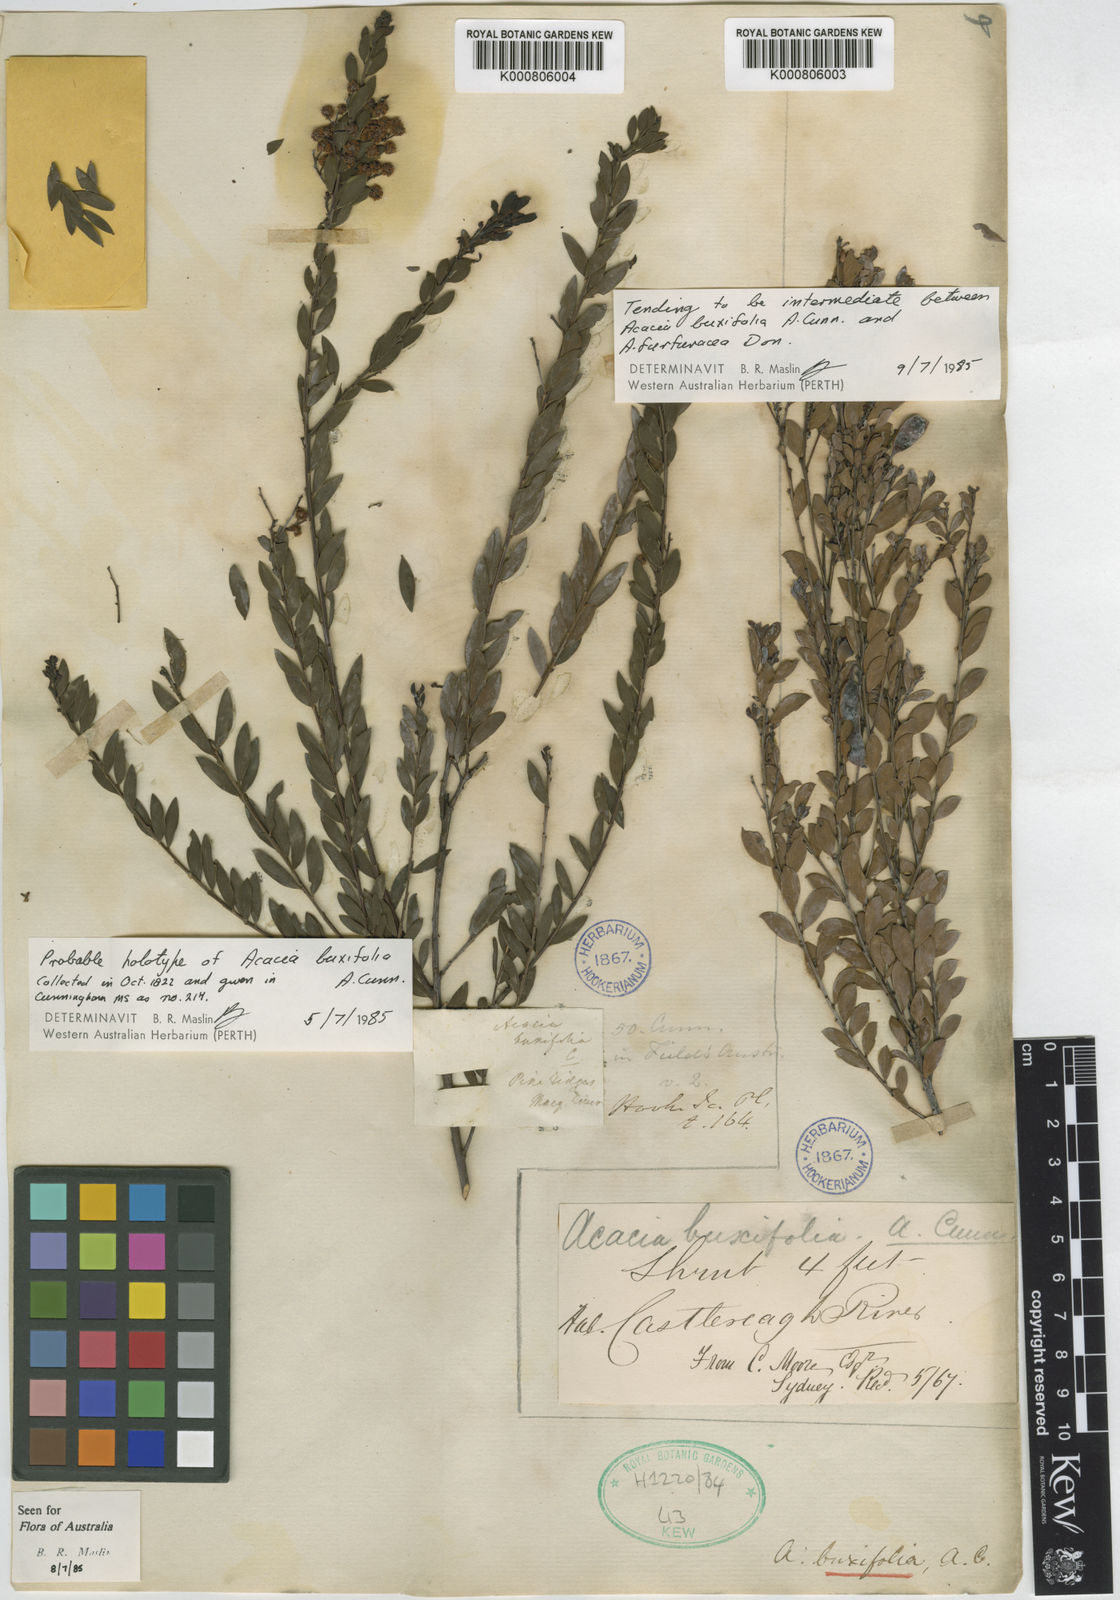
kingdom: Plantae
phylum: Tracheophyta
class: Magnoliopsida
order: Fabales
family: Fabaceae
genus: Acacia
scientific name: Acacia buxifolia
